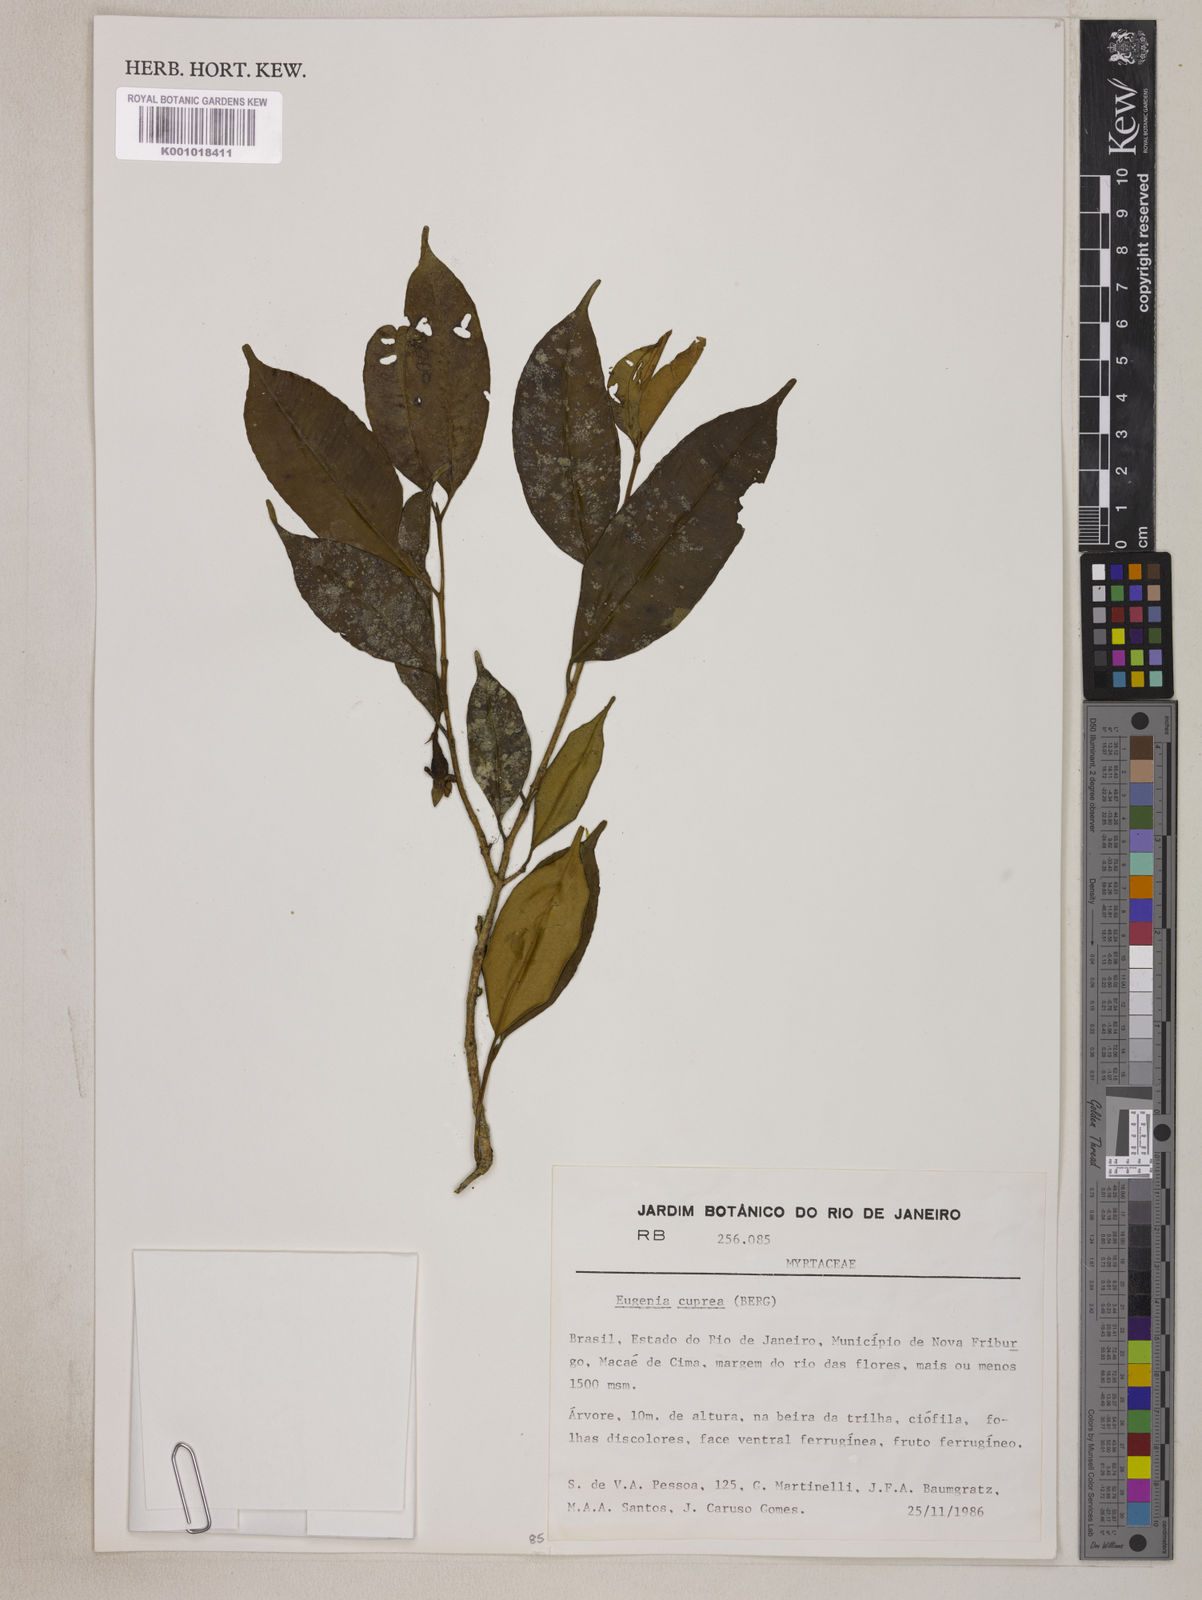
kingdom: Plantae
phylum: Tracheophyta
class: Magnoliopsida
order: Myrtales
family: Myrtaceae
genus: Eugenia
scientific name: Eugenia cuprea
